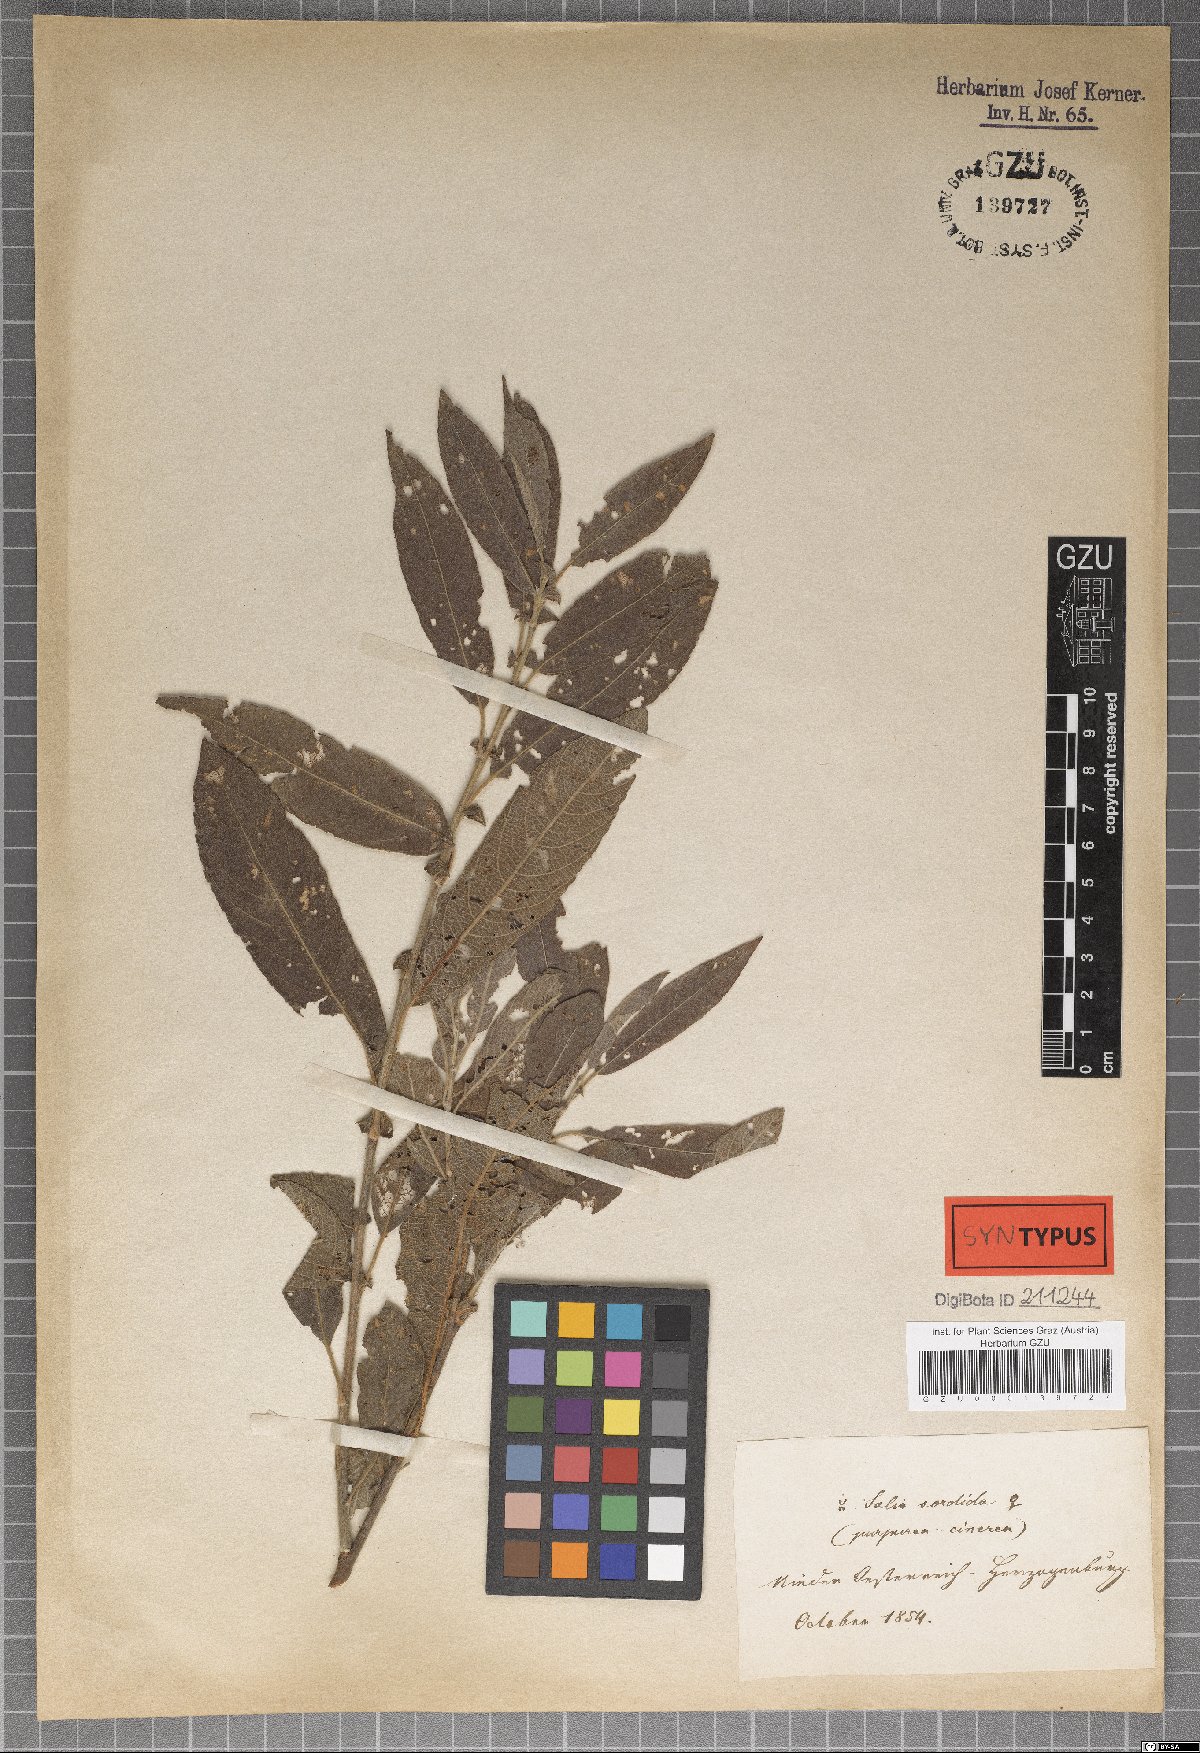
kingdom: Plantae
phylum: Tracheophyta
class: Magnoliopsida
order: Malpighiales
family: Salicaceae
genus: Salix
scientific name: Salix sordida
